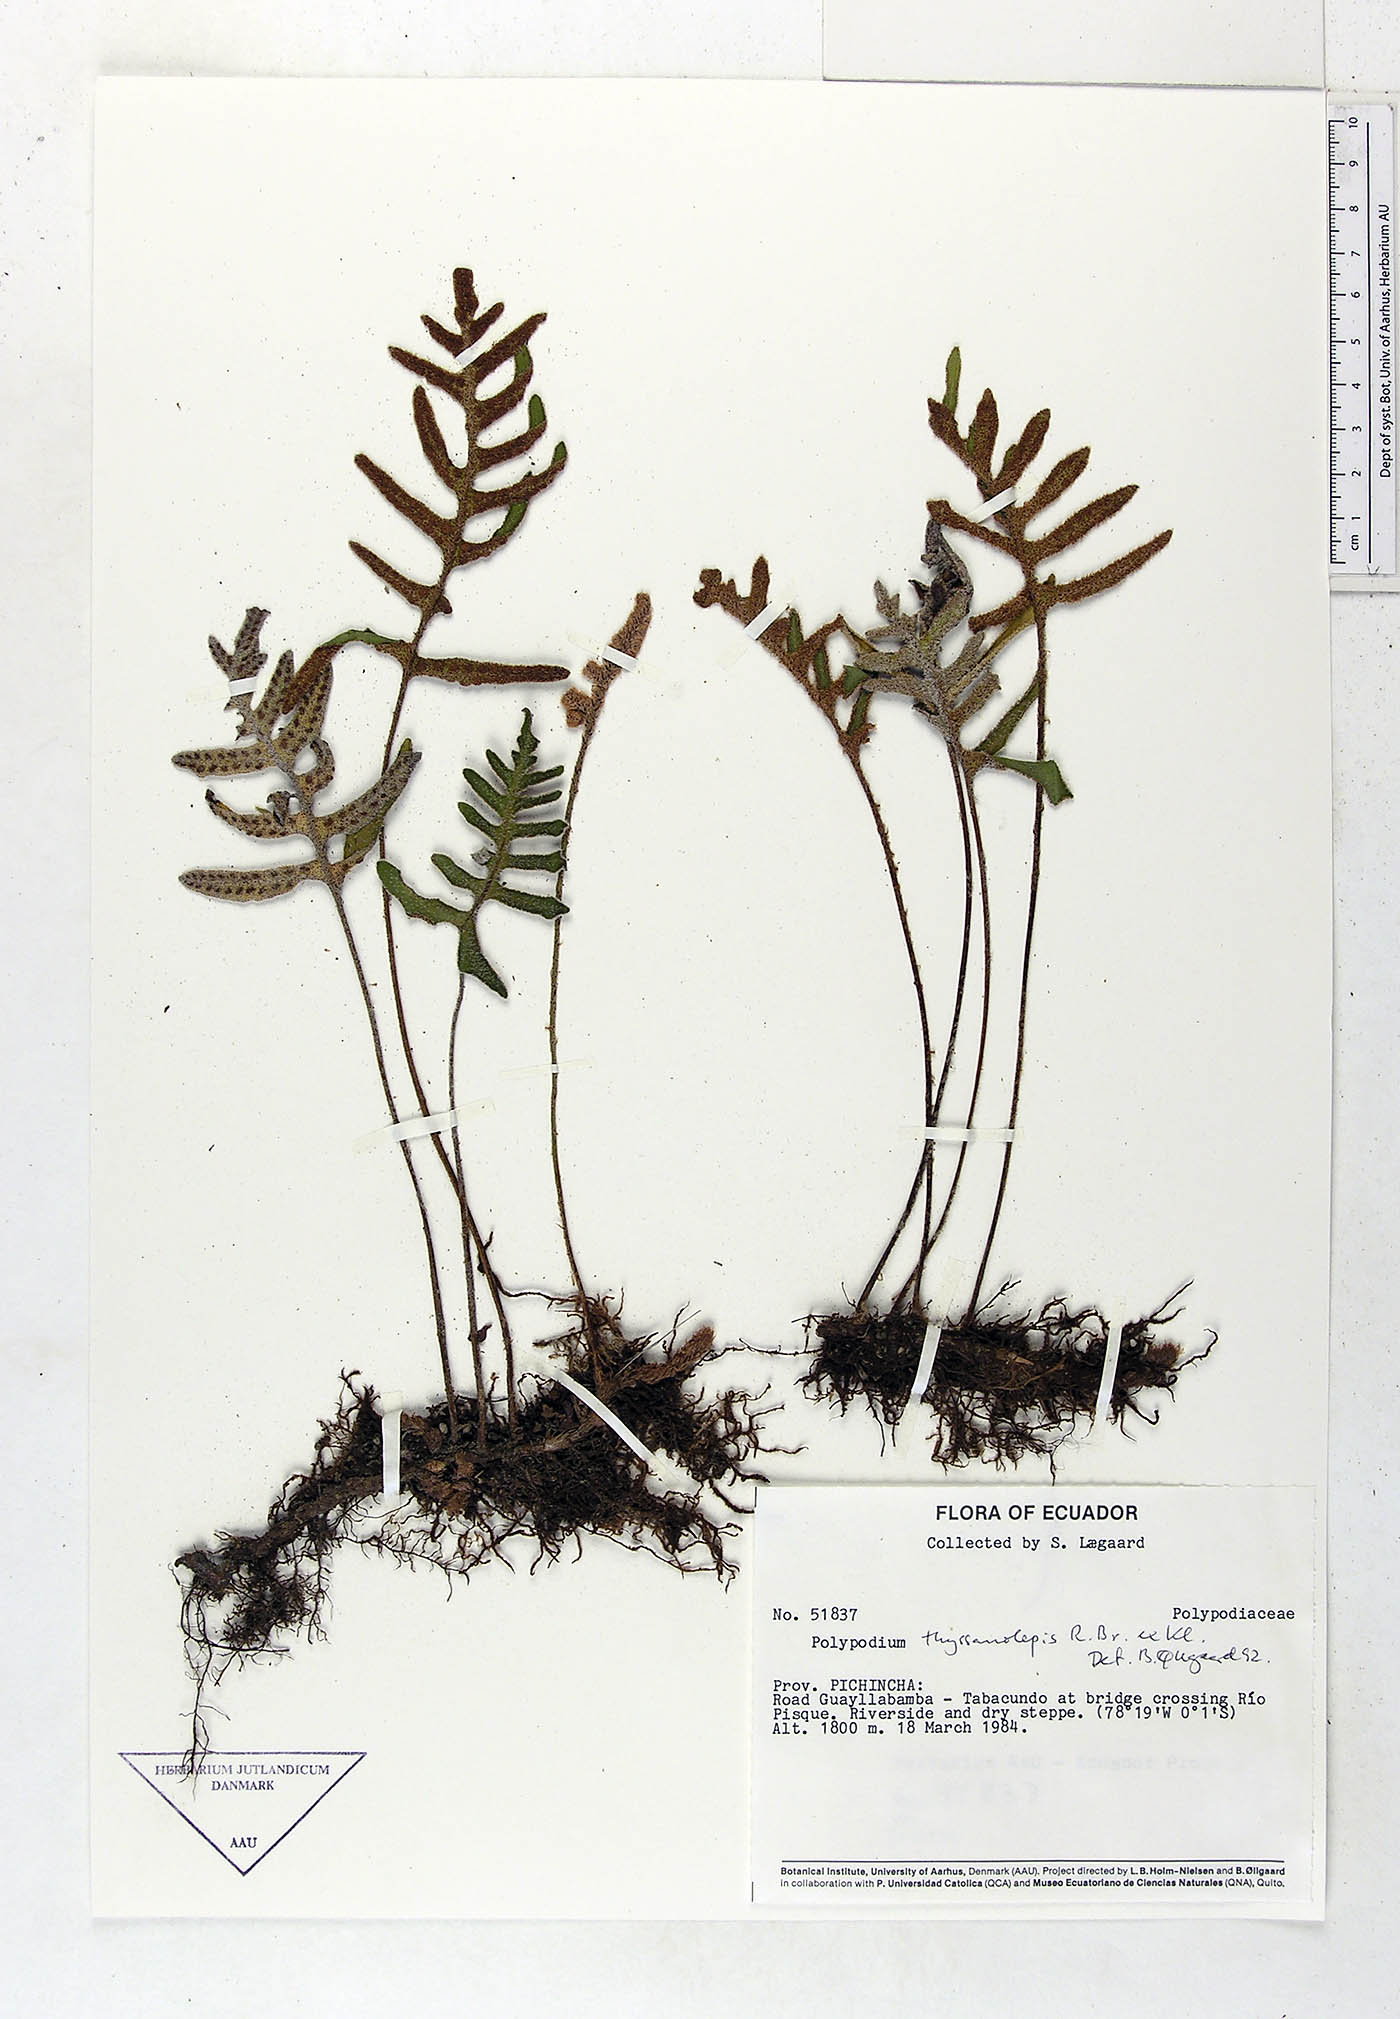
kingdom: Plantae
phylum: Tracheophyta
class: Polypodiopsida
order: Polypodiales
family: Polypodiaceae
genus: Pleopeltis
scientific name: Pleopeltis thyssanolepis
